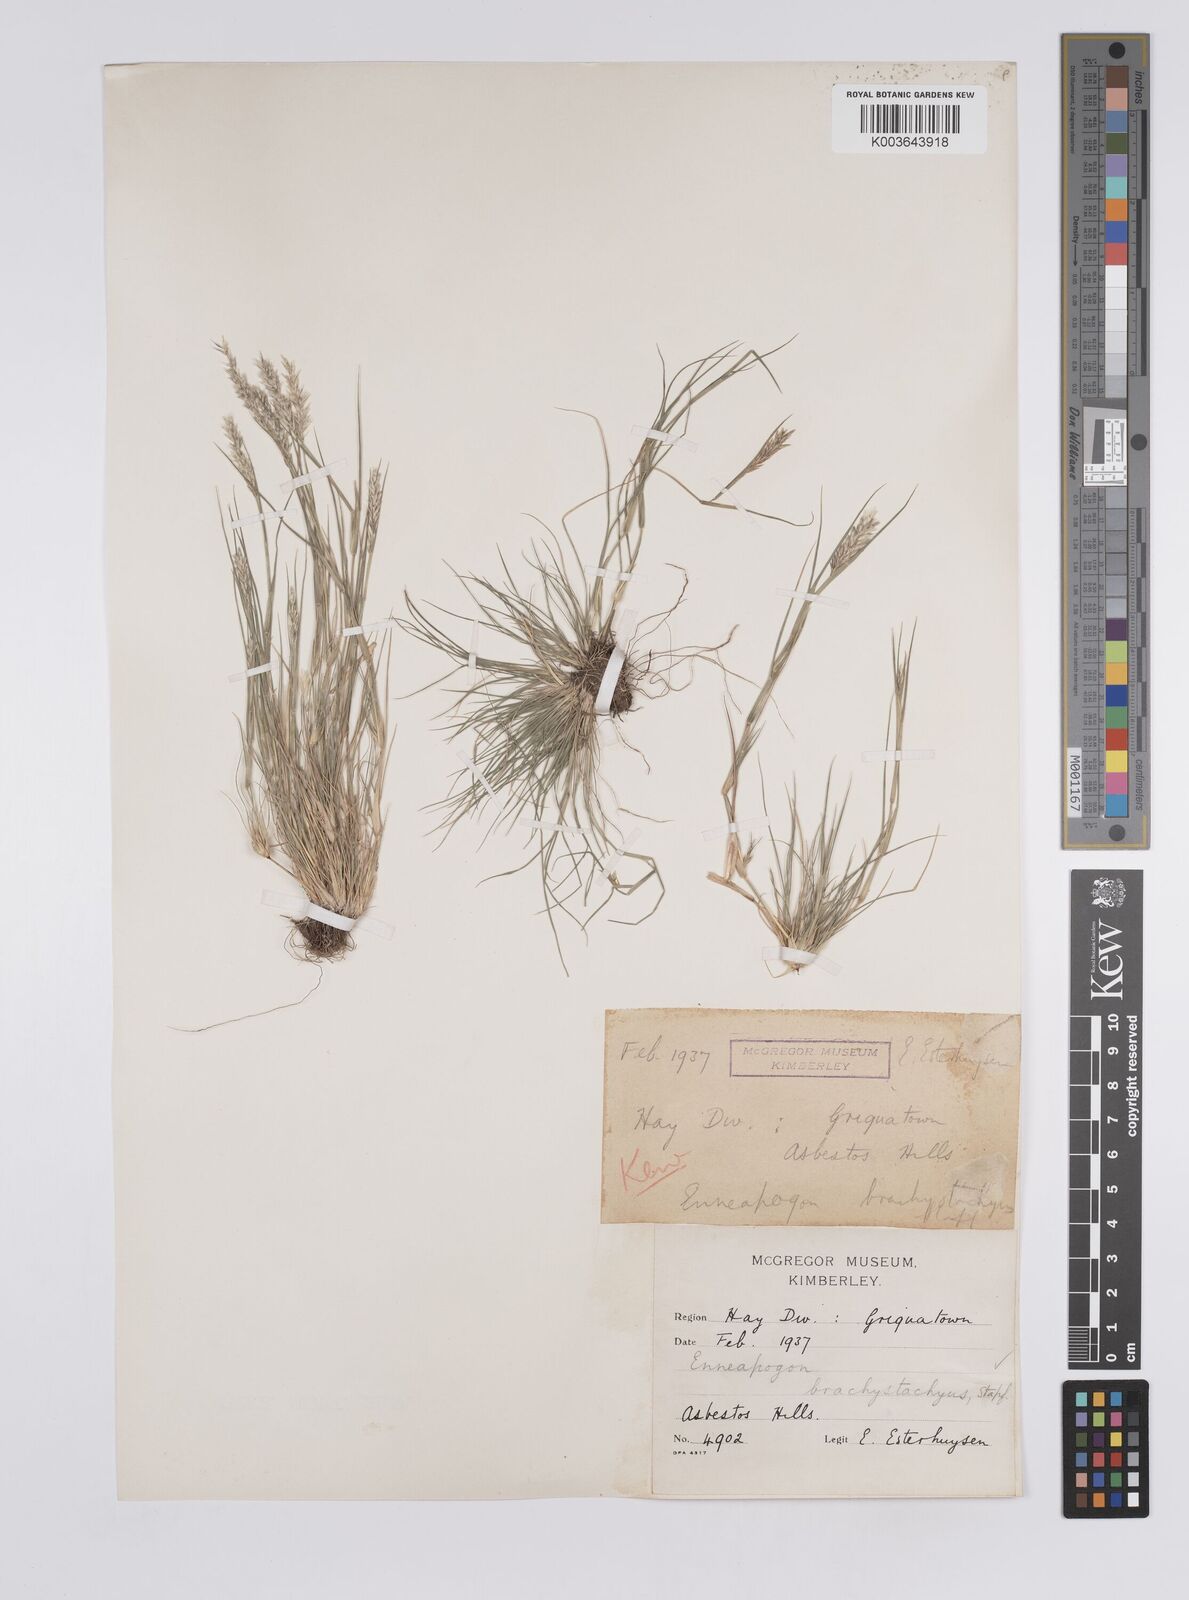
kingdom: Plantae
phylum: Tracheophyta
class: Liliopsida
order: Poales
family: Poaceae
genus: Enneapogon
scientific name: Enneapogon desvauxii
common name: Feather pappus grass
